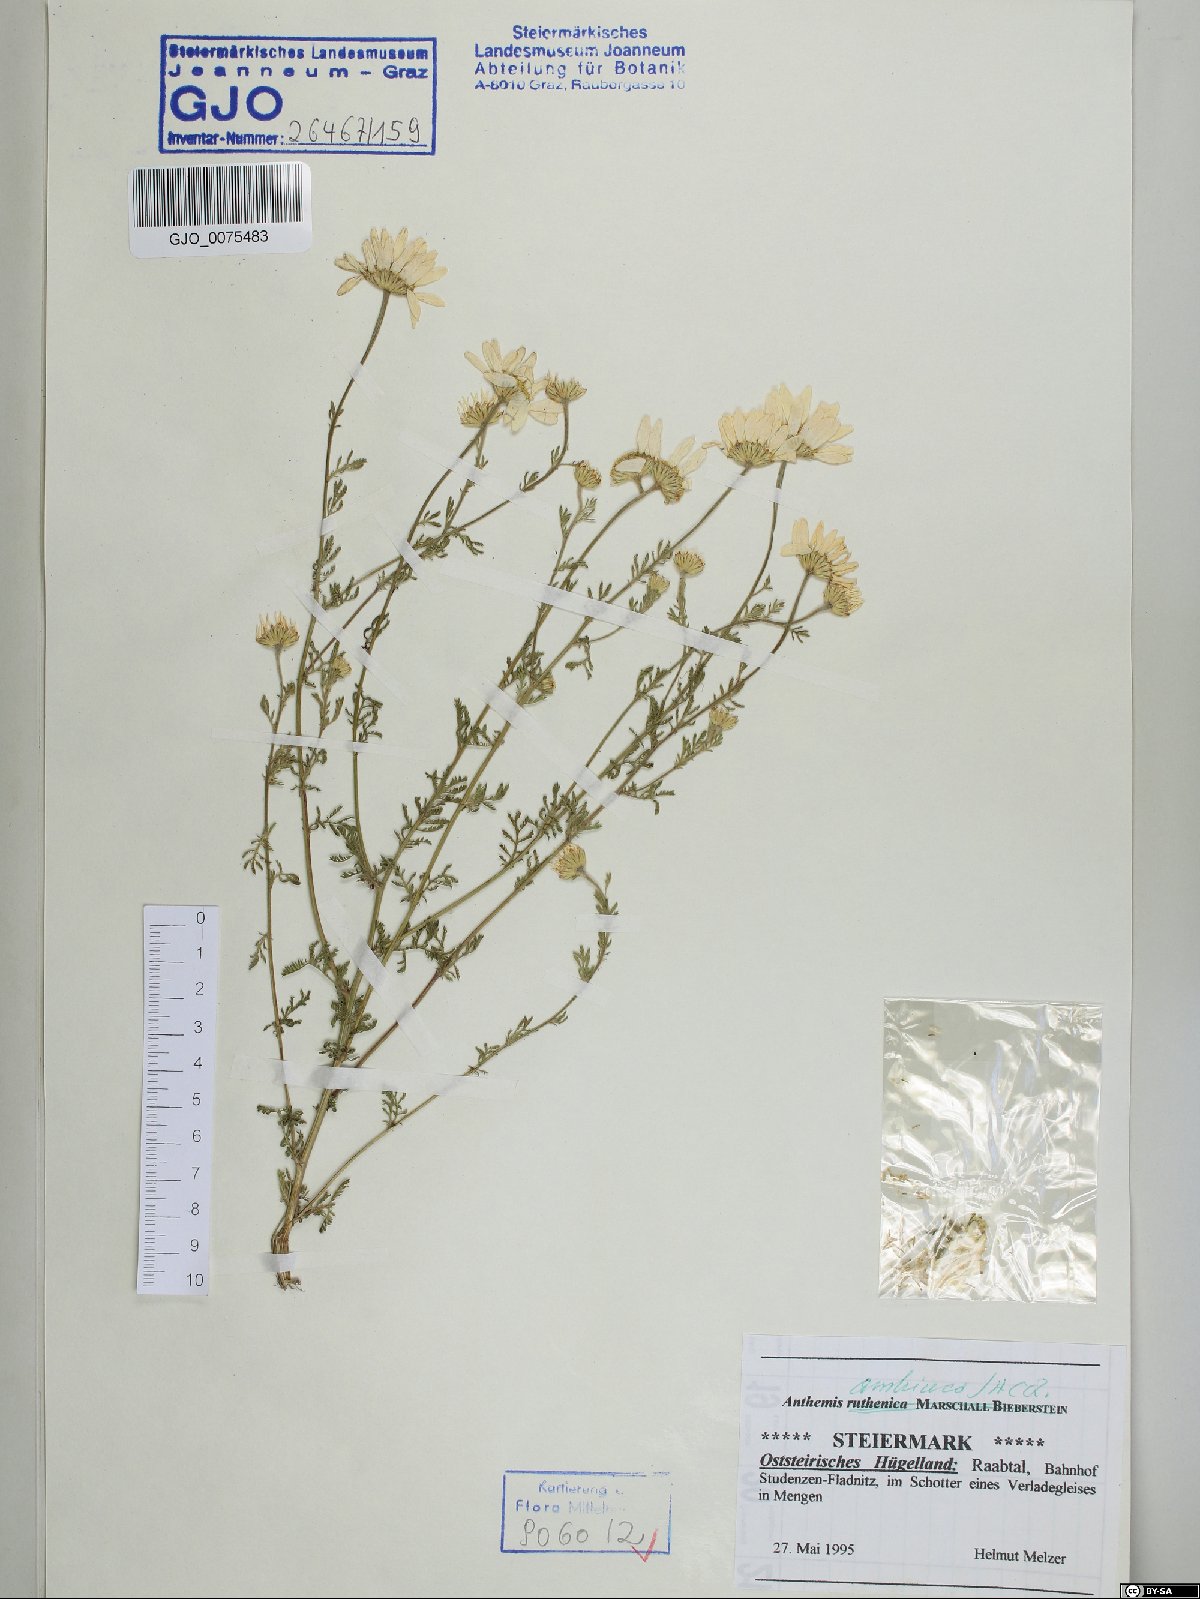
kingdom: Plantae
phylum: Tracheophyta
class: Magnoliopsida
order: Asterales
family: Asteraceae
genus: Cota
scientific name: Cota austriaca
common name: Austrian chamomile
